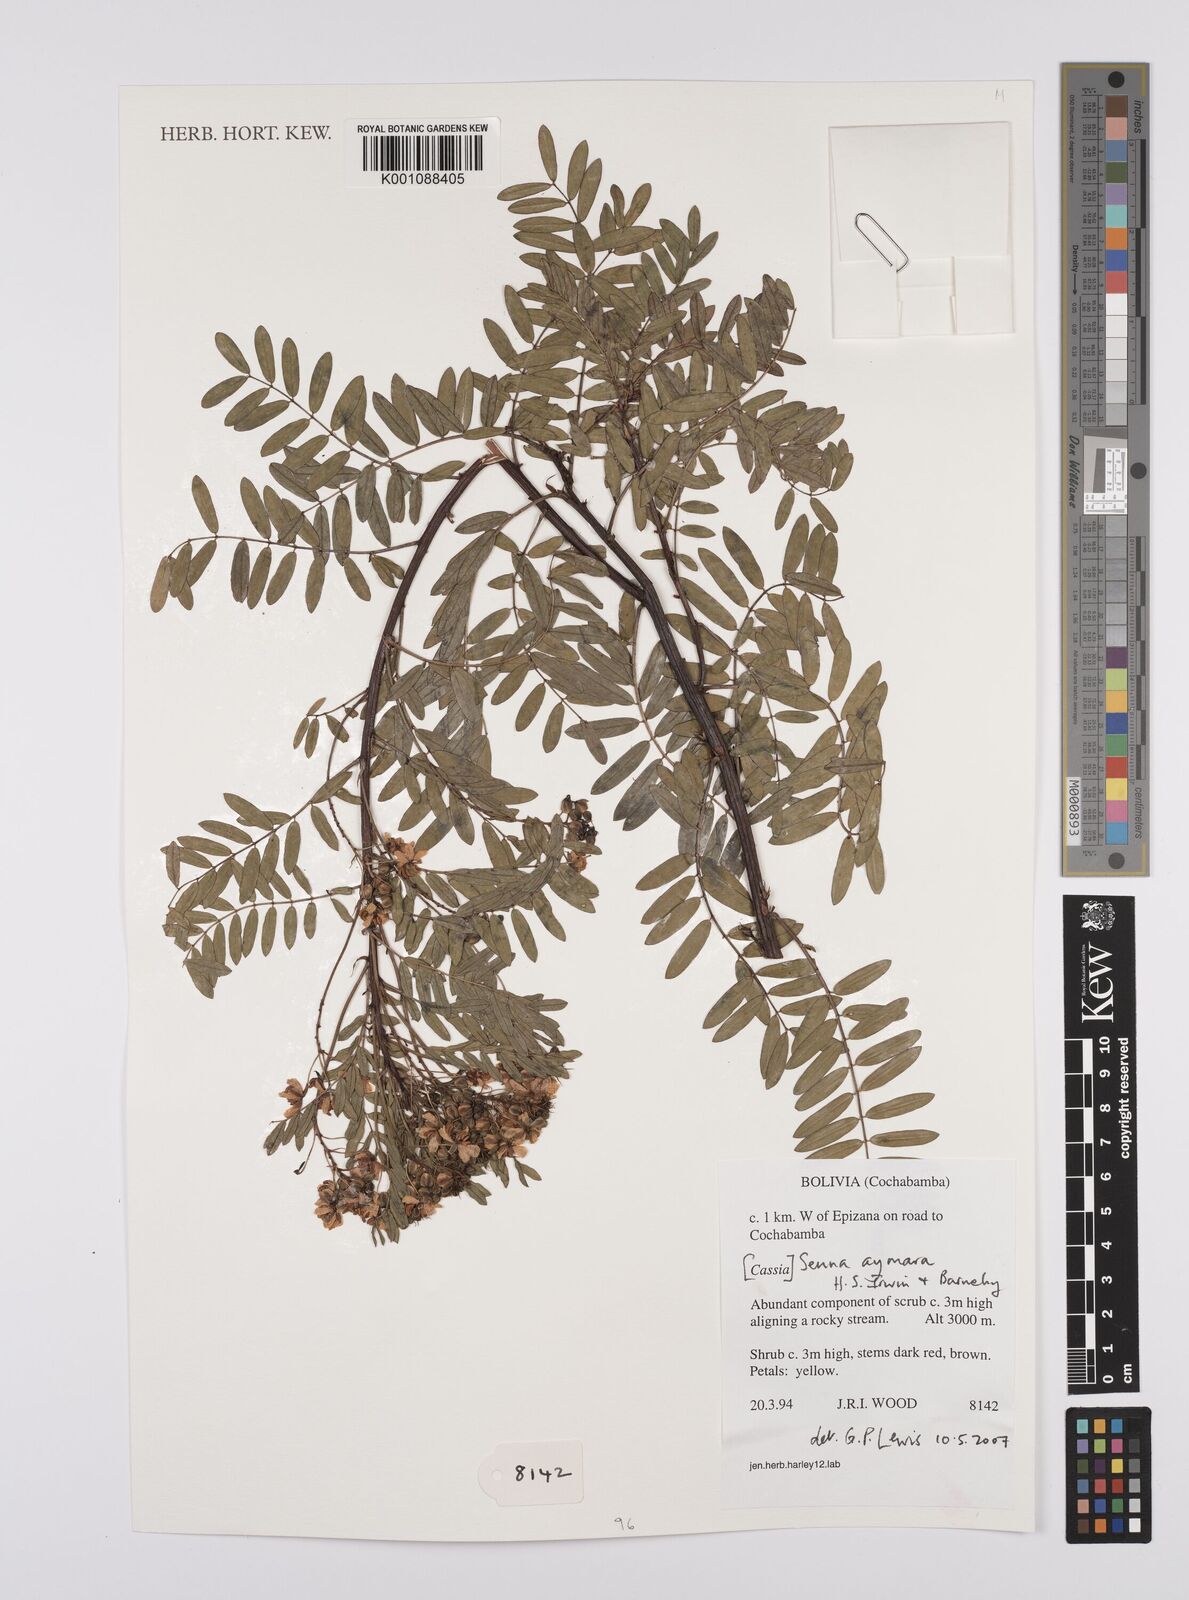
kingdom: Plantae
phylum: Tracheophyta
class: Magnoliopsida
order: Fabales
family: Fabaceae
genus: Senna
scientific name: Senna aymara
